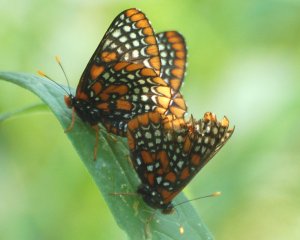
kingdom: Animalia
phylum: Arthropoda
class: Insecta
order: Lepidoptera
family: Nymphalidae
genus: Euphydryas
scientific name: Euphydryas phaeton
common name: Baltimore Checkerspot
